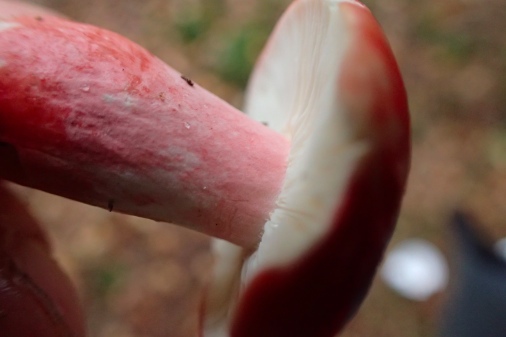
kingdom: Fungi
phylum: Basidiomycota
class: Agaricomycetes
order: Russulales
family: Russulaceae
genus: Russula
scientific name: Russula rhodopus
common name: lak-skørhat
